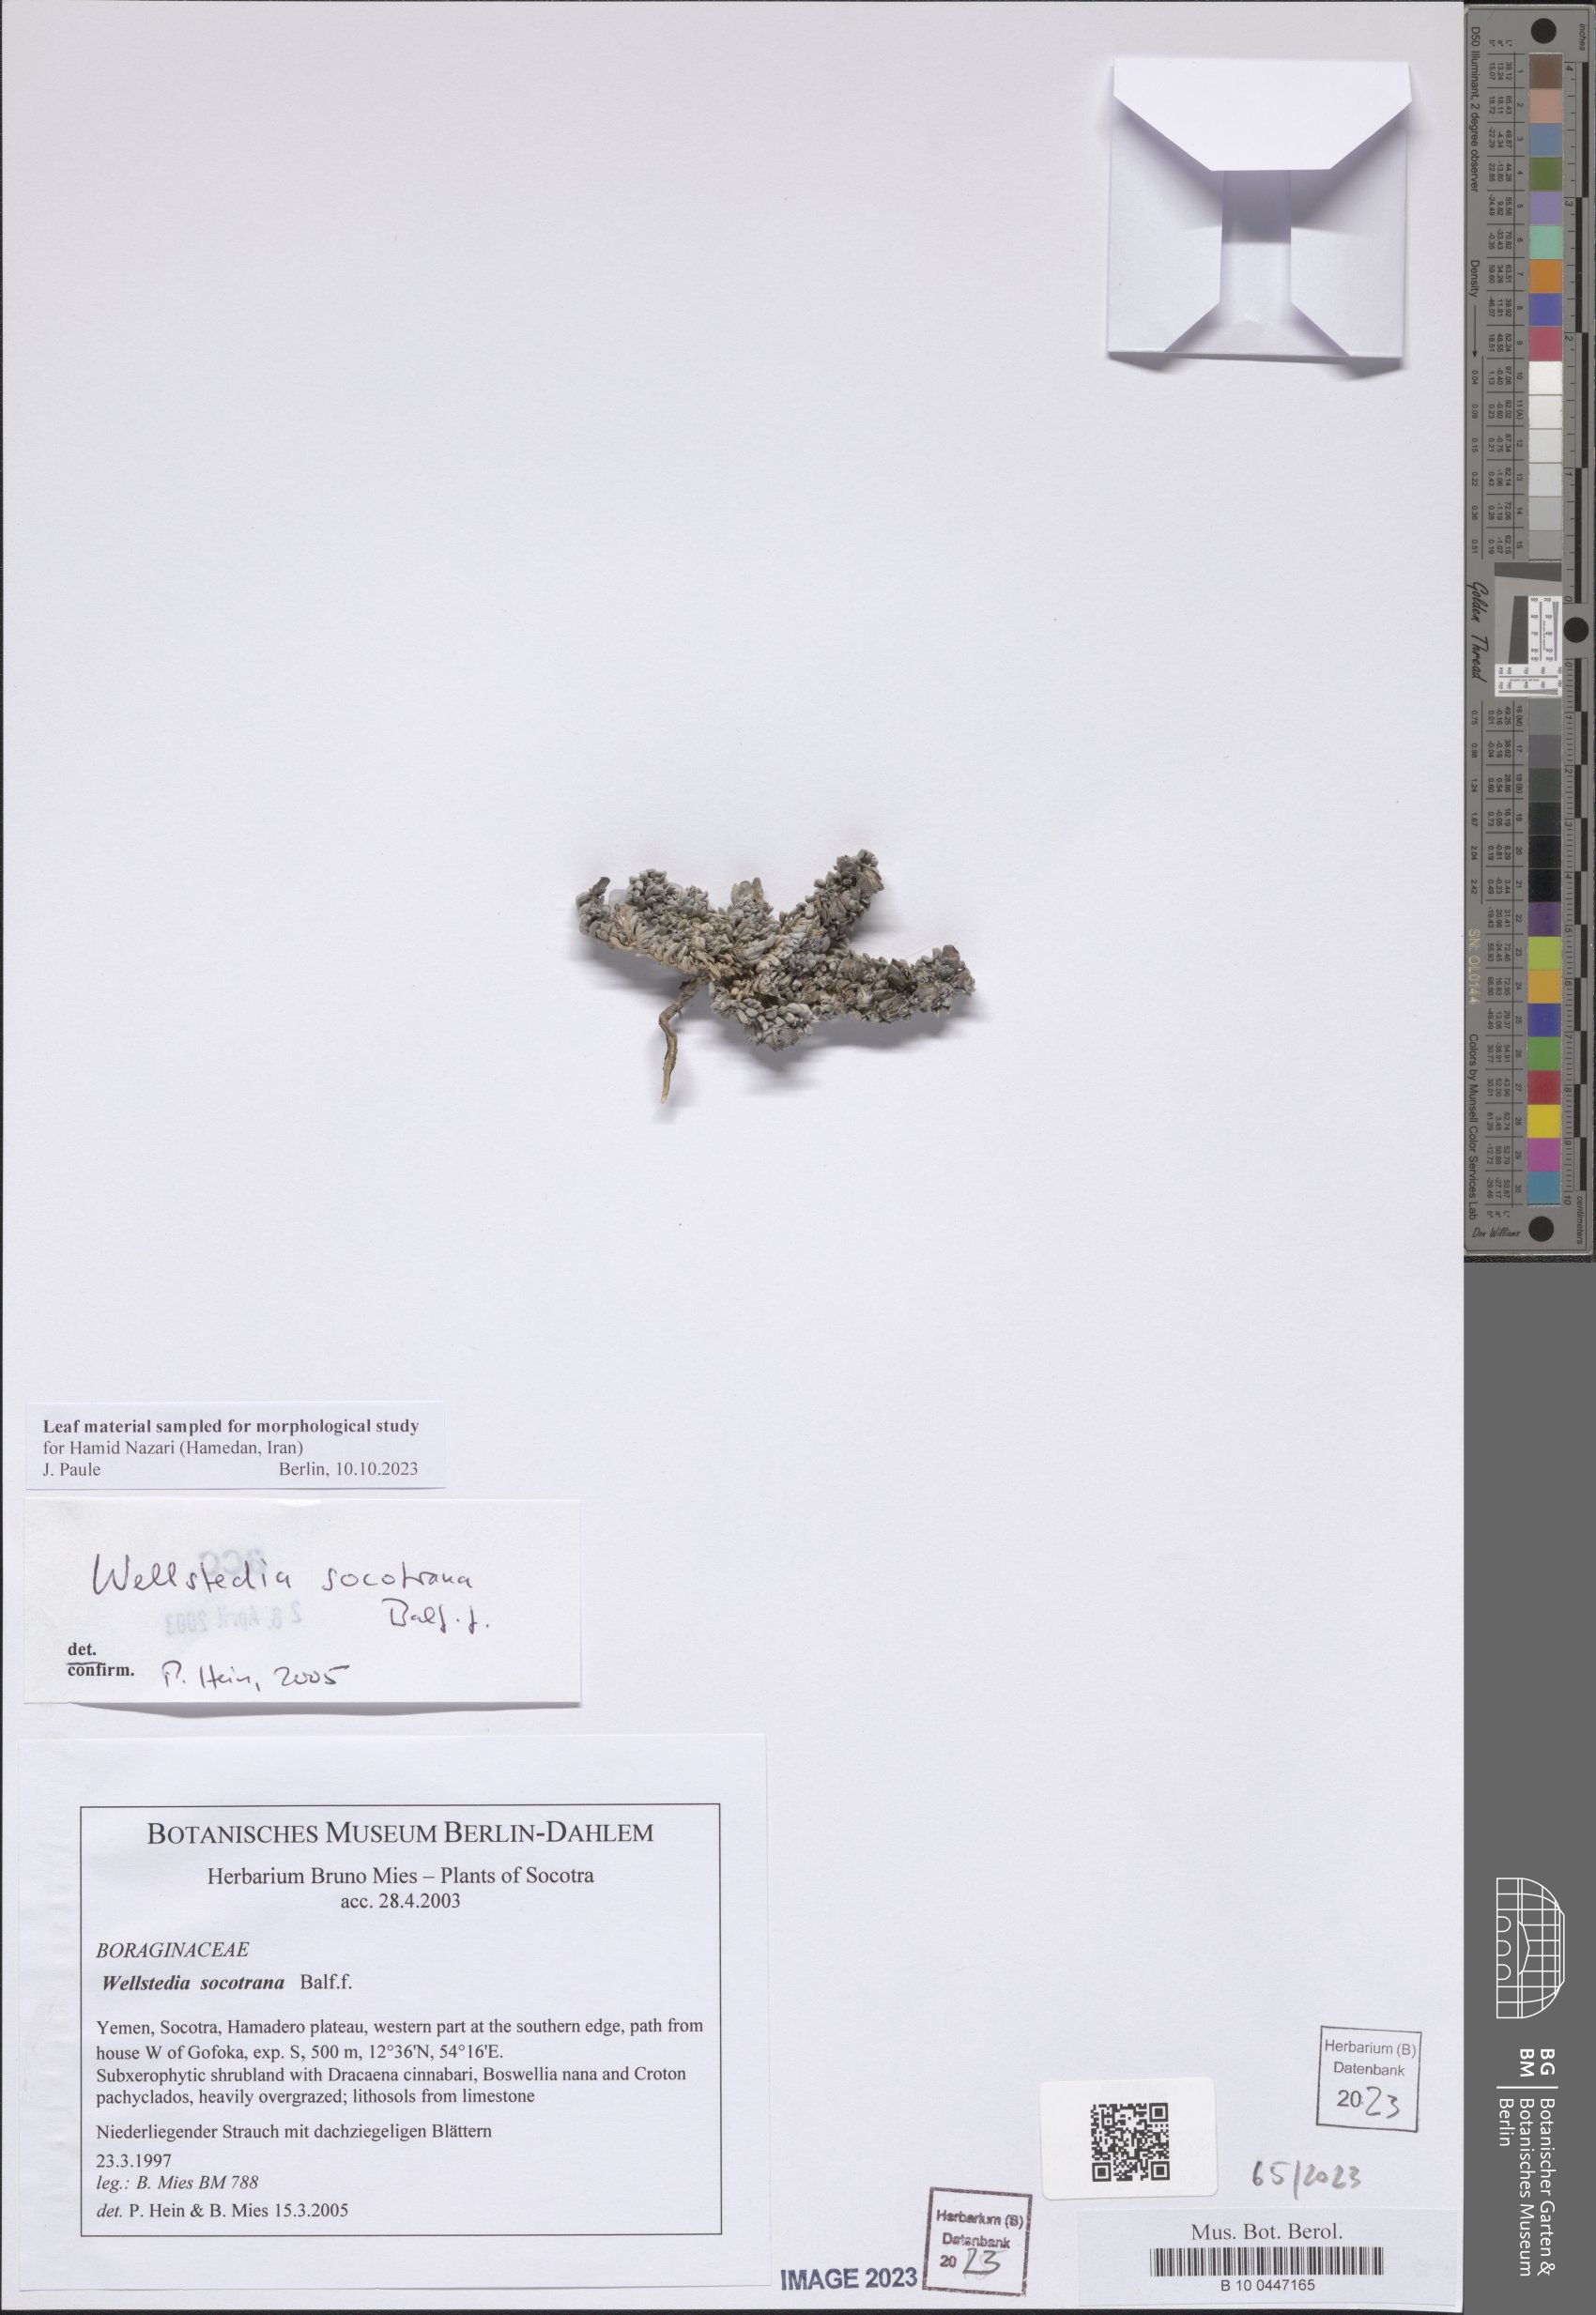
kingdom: Plantae
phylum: Tracheophyta
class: Magnoliopsida
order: Boraginales
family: Wellstediaceae
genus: Wellstedia
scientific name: Wellstedia socotrana
